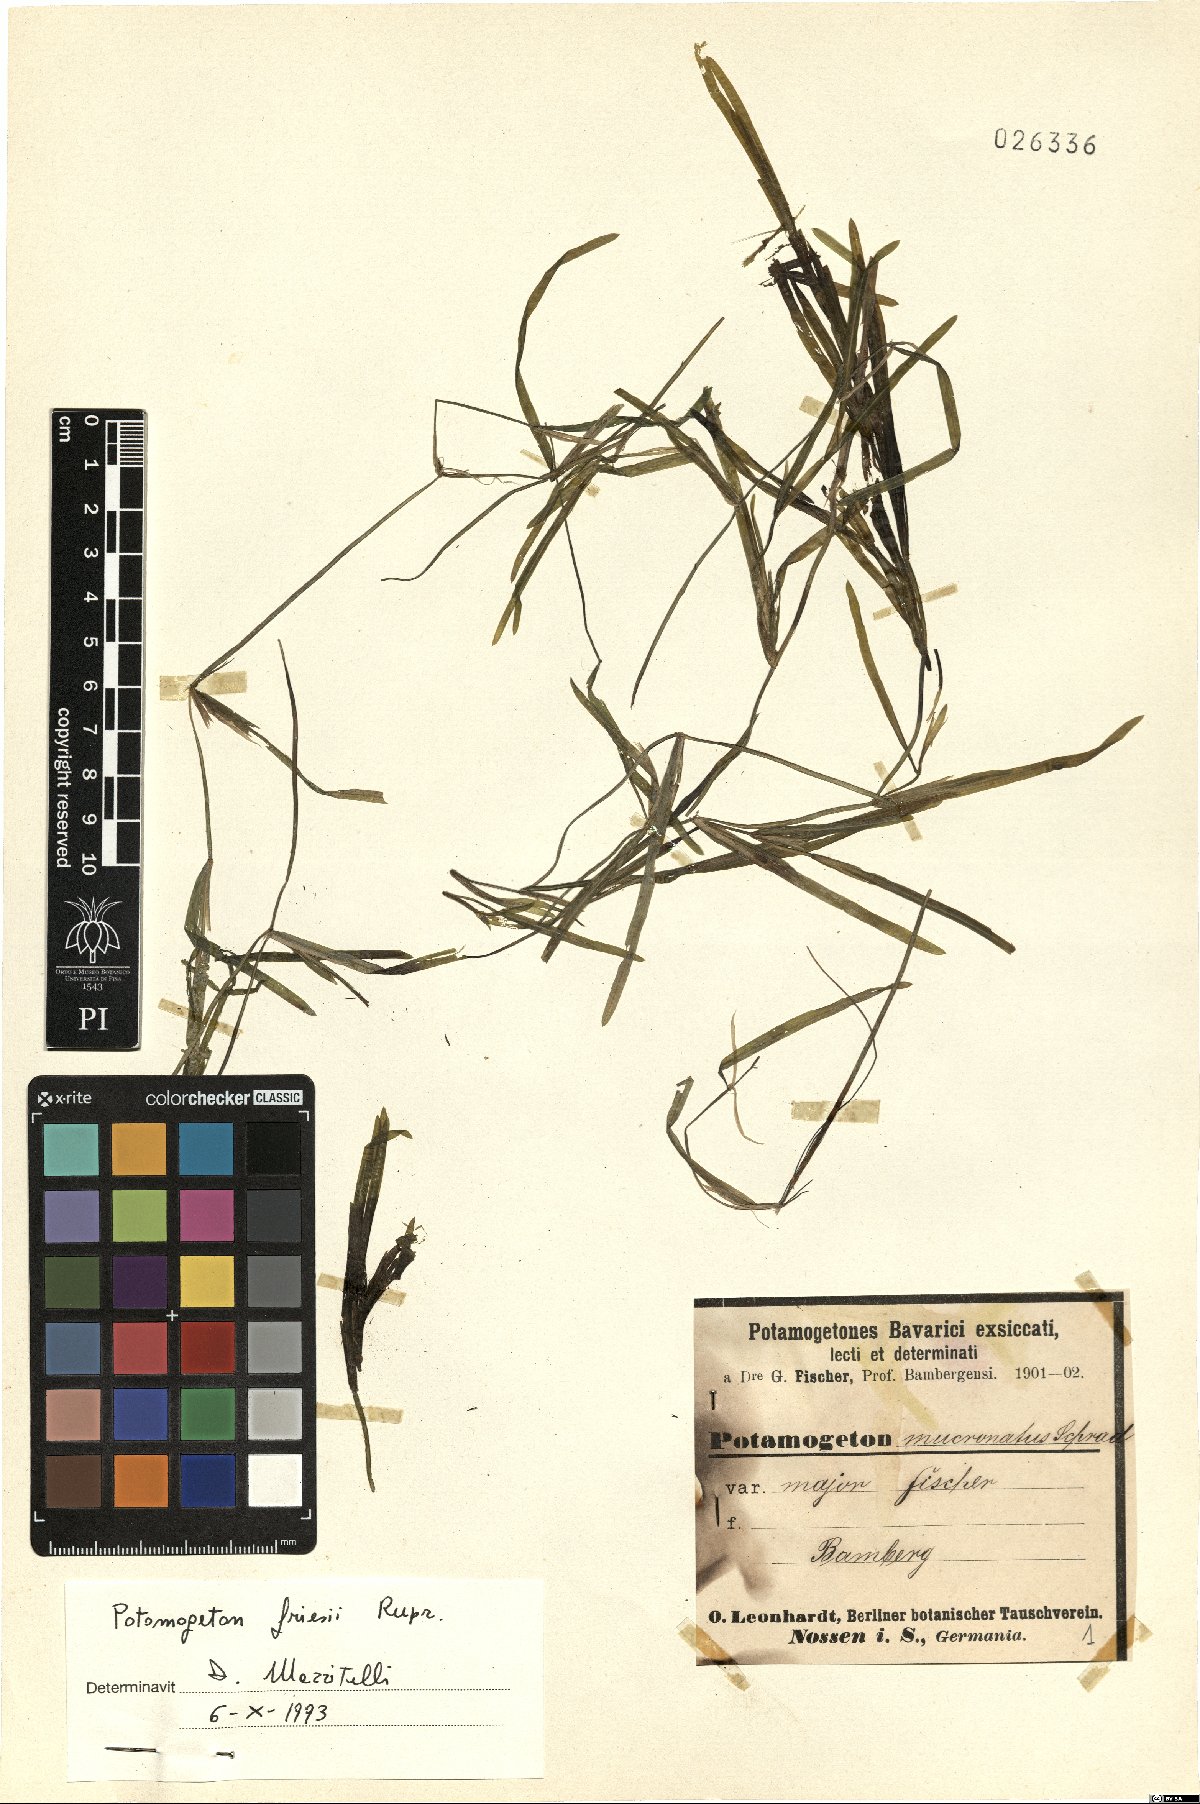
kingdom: Plantae
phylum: Tracheophyta
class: Liliopsida
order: Alismatales
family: Potamogetonaceae
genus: Potamogeton
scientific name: Potamogeton friesii
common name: Flat-stalked pondweed
